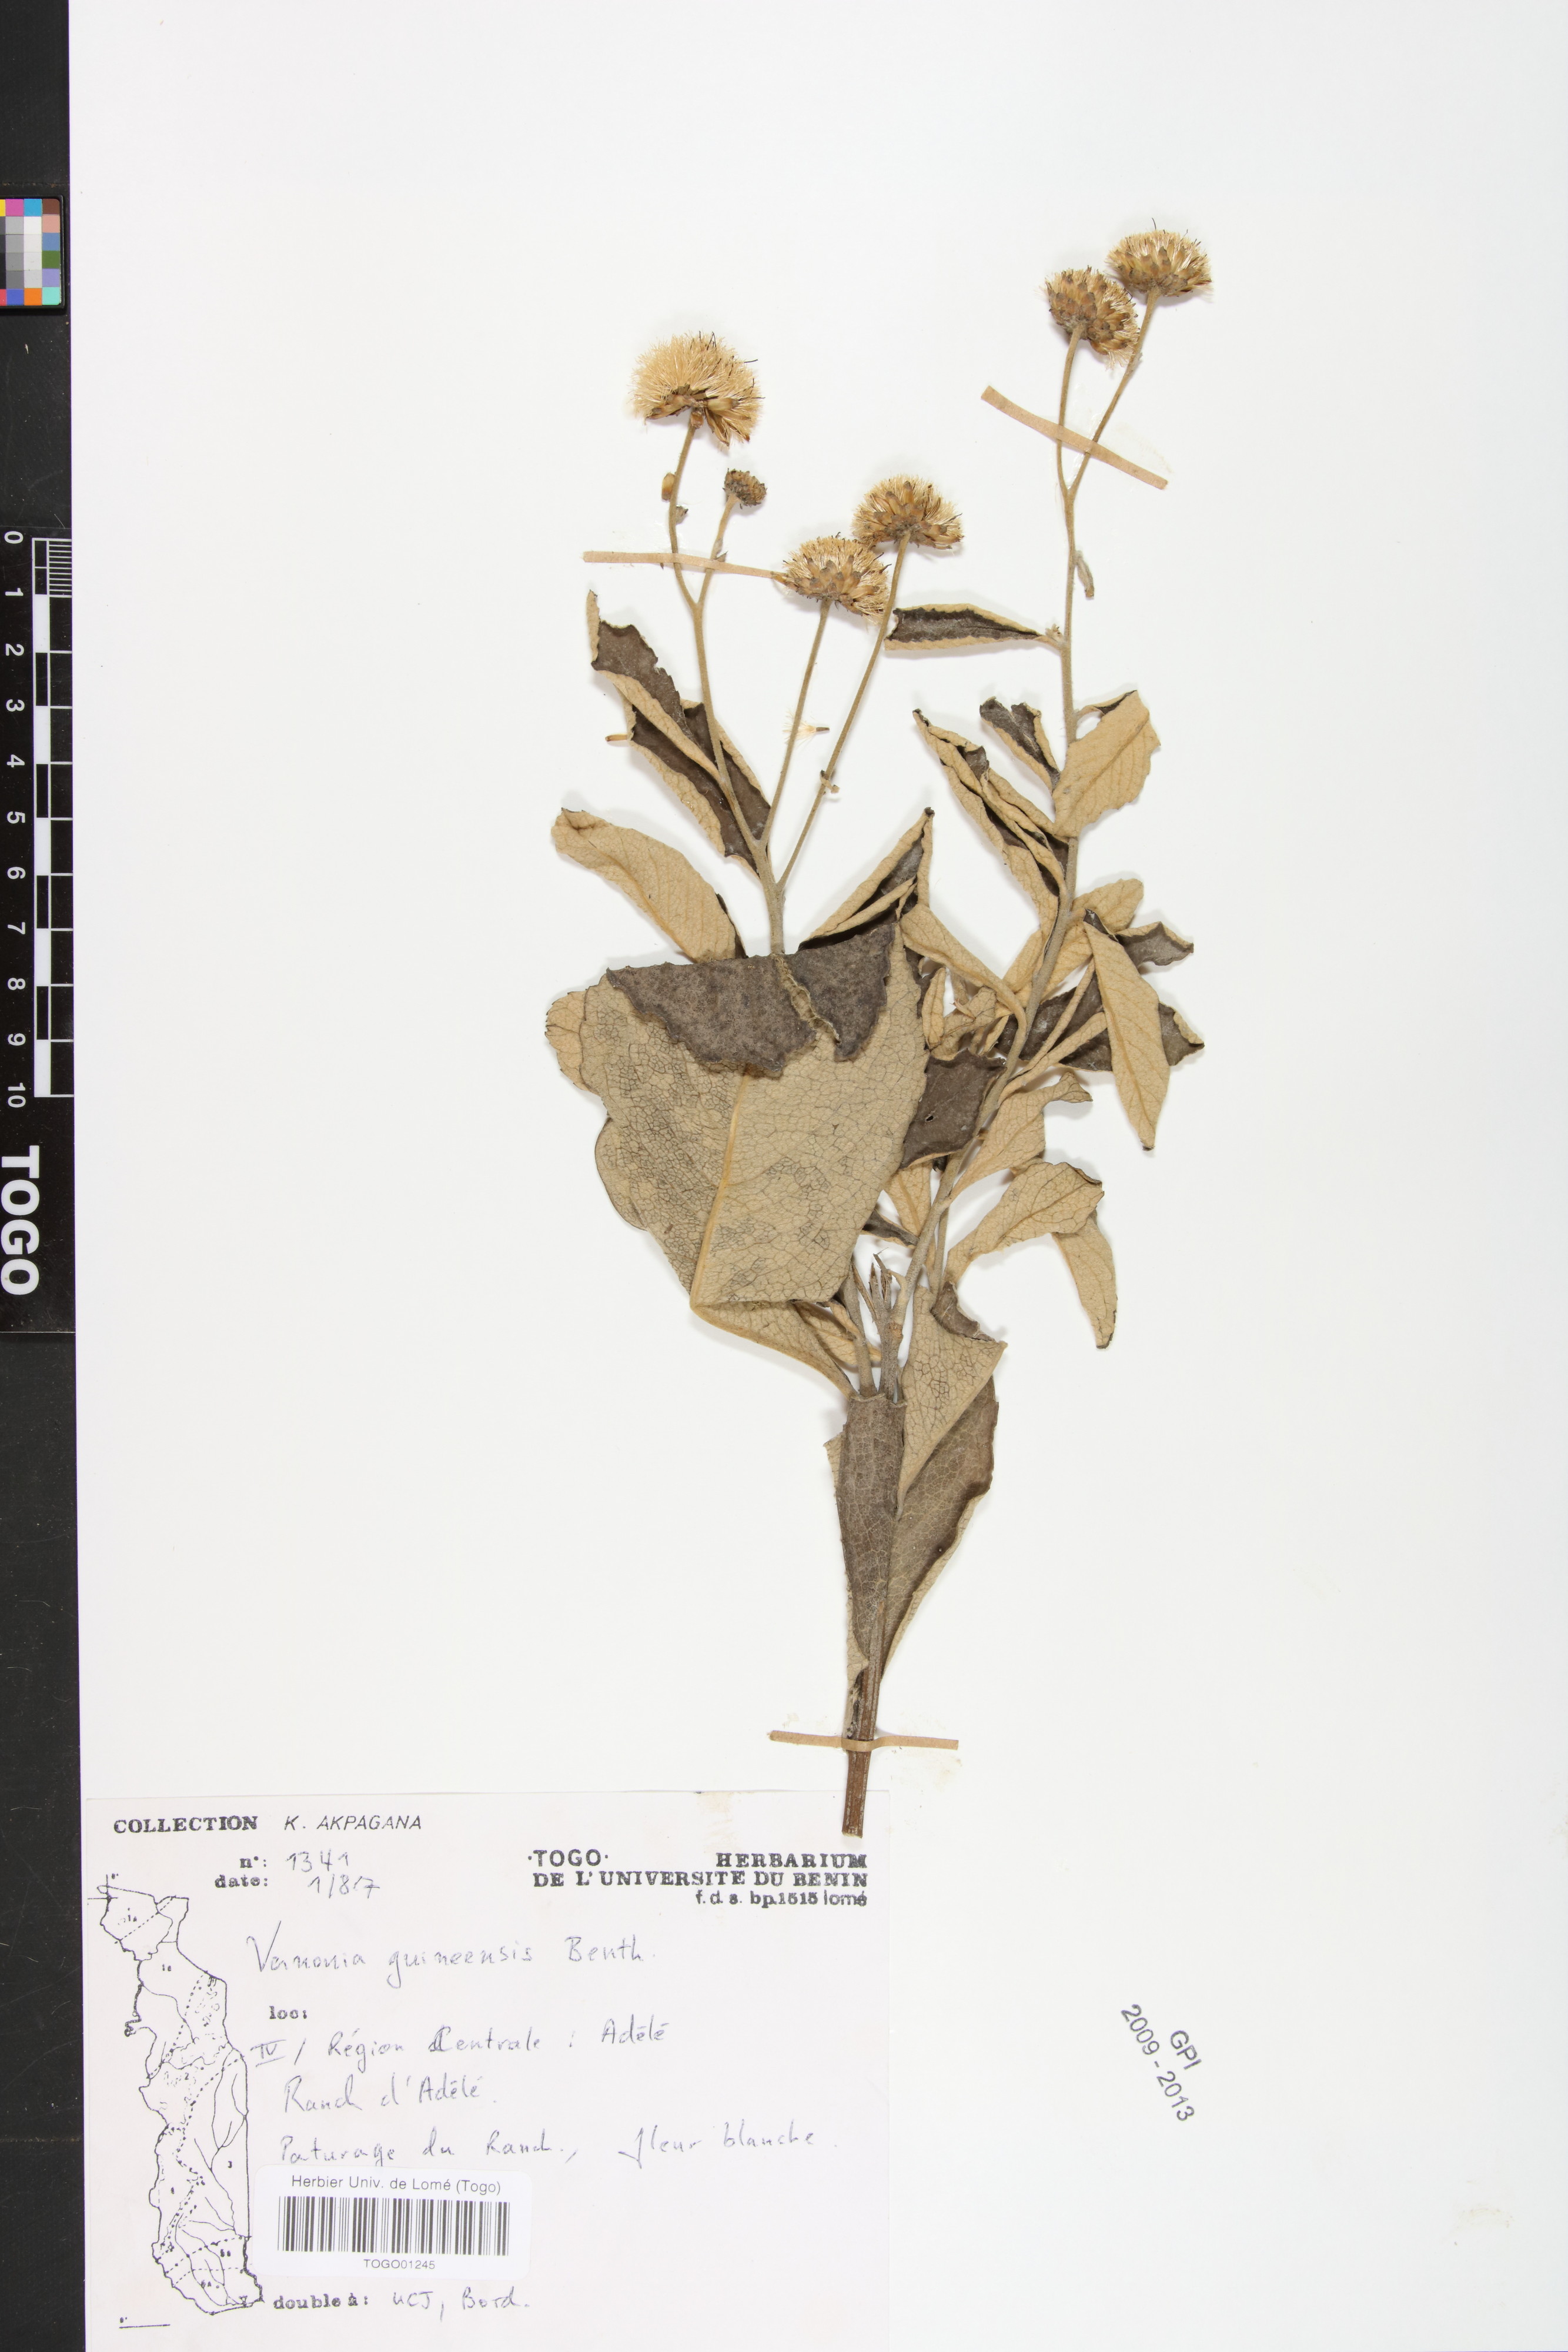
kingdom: Plantae
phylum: Tracheophyta
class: Magnoliopsida
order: Asterales
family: Asteraceae
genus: Baccharoides
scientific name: Baccharoides guineensis
